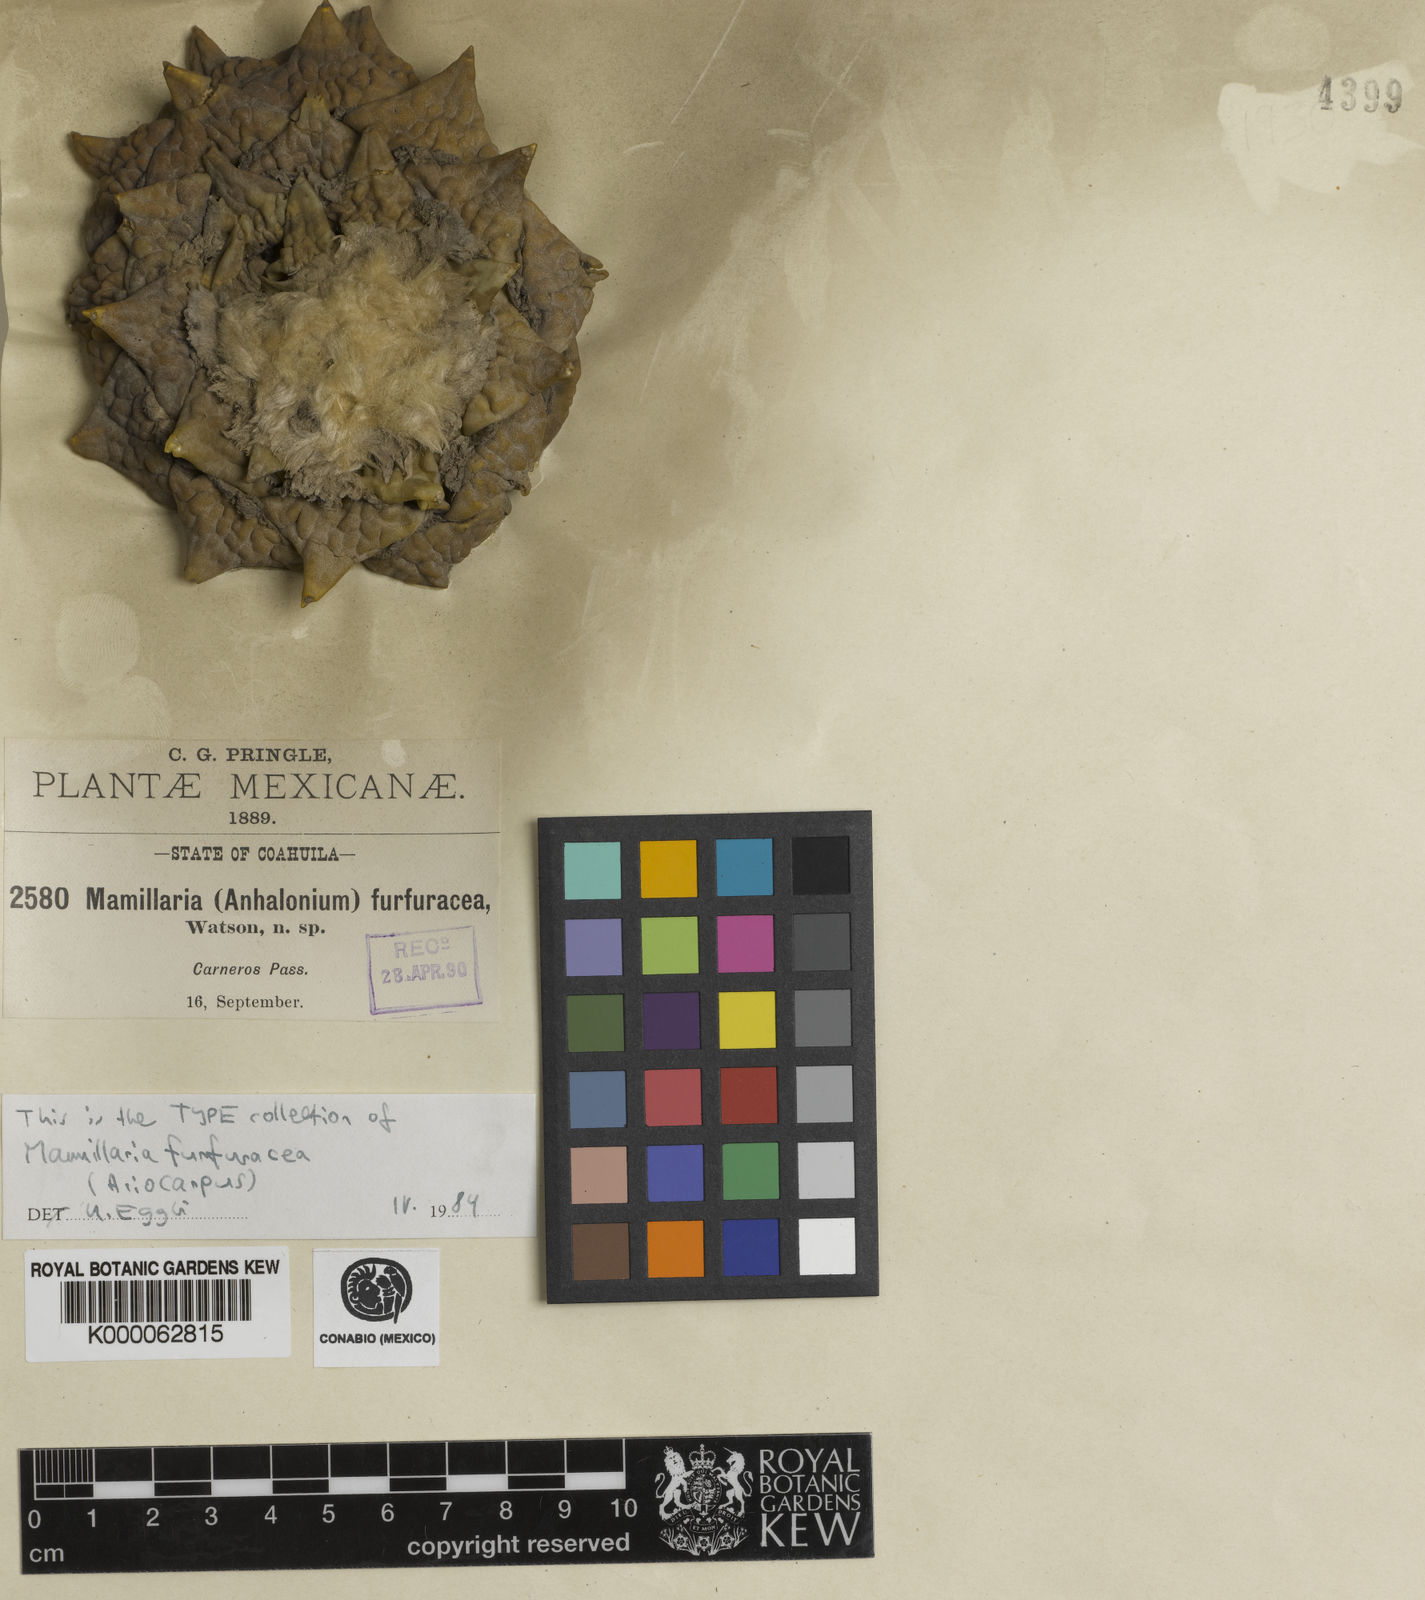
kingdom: Plantae
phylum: Tracheophyta
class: Magnoliopsida
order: Caryophyllales
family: Cactaceae
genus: Ariocarpus
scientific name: Ariocarpus retusus
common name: Seven stars
